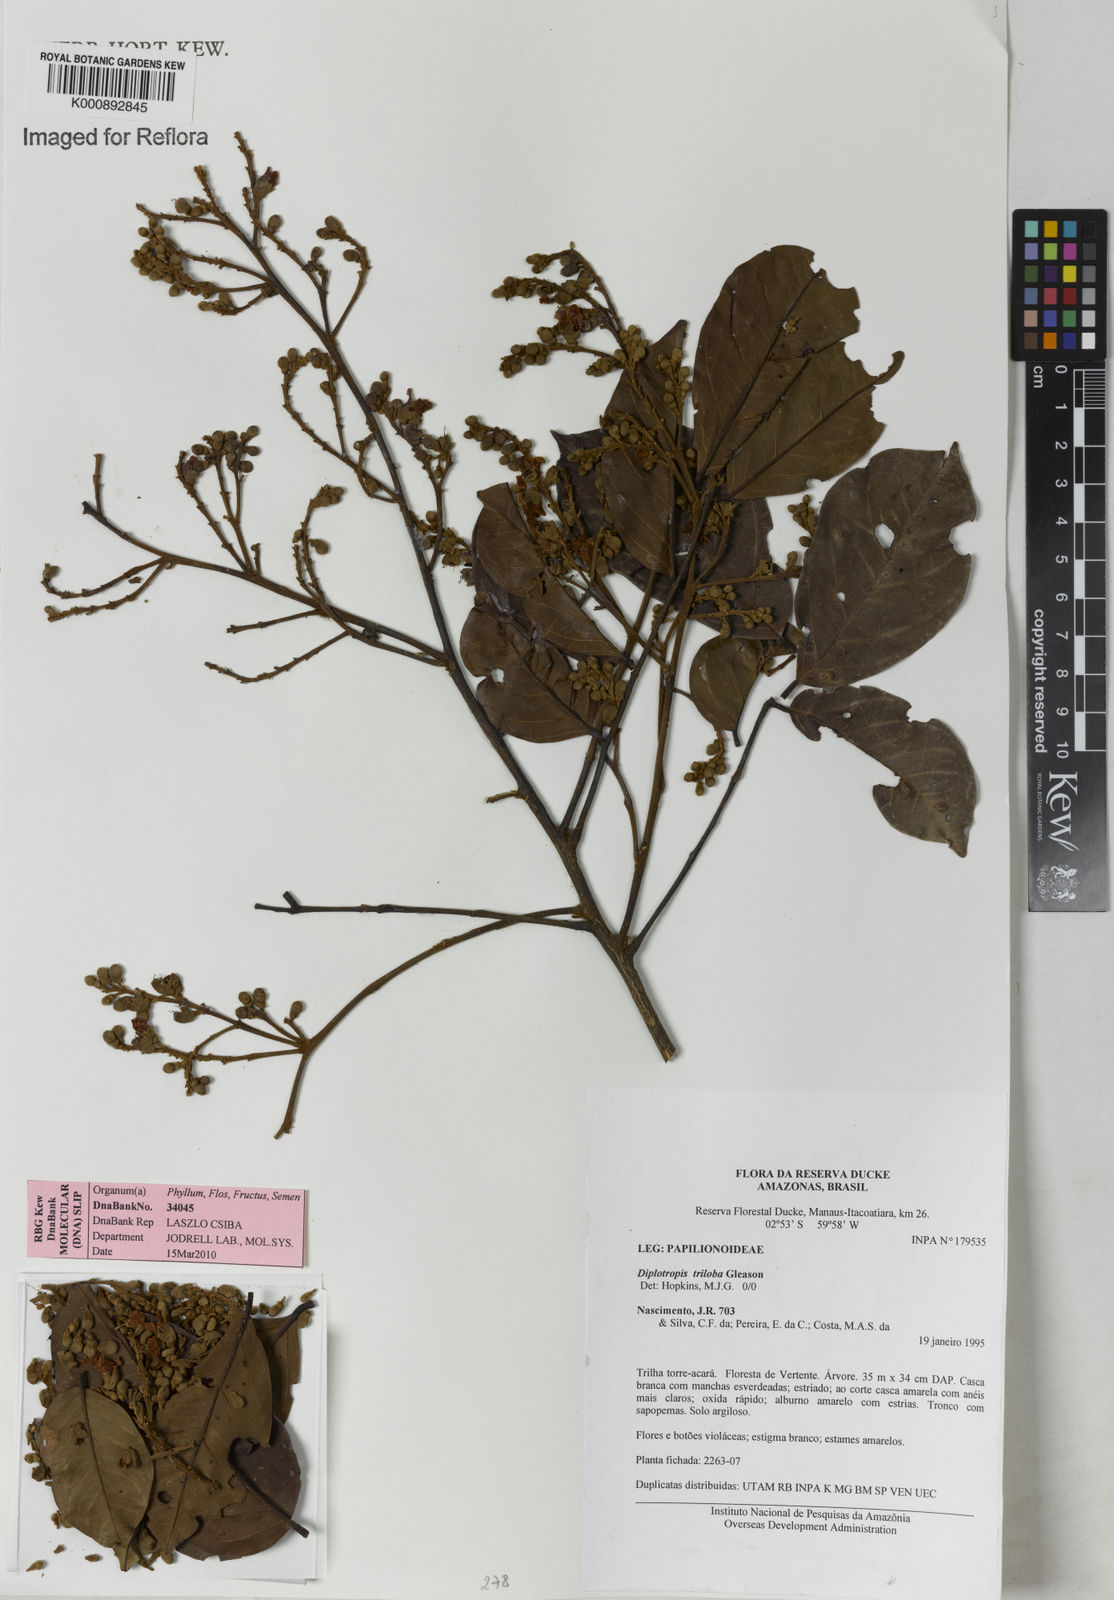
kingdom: Plantae
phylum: Tracheophyta
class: Magnoliopsida
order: Fabales
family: Fabaceae
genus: Diplotropis
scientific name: Diplotropis triloba
